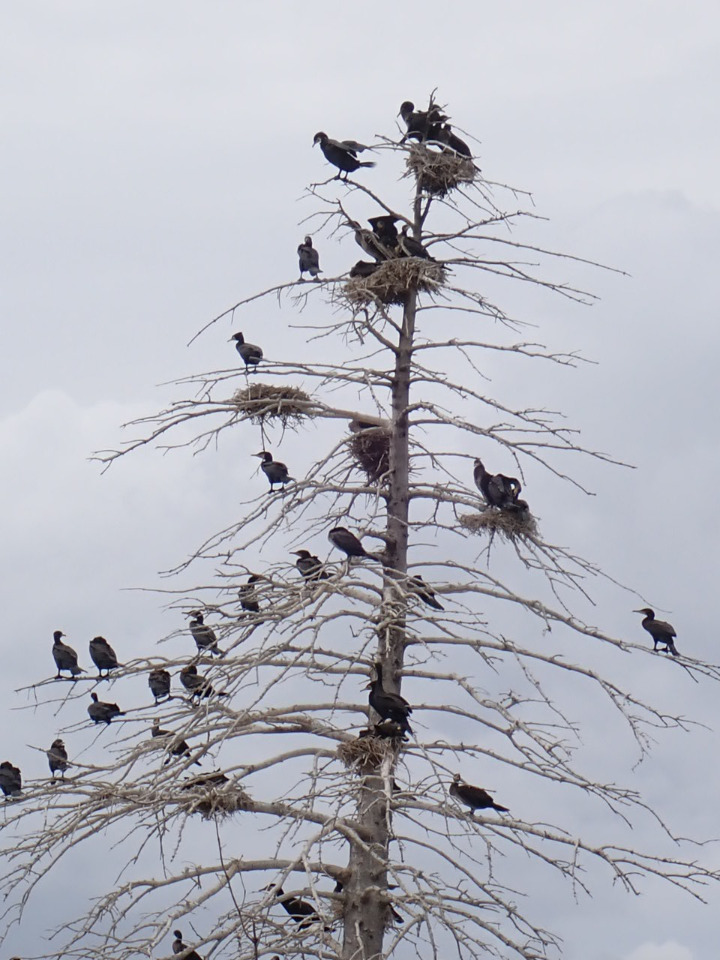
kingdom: Animalia
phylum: Chordata
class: Aves
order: Suliformes
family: Phalacrocoracidae
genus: Phalacrocorax
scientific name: Phalacrocorax carbo
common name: Skarv
